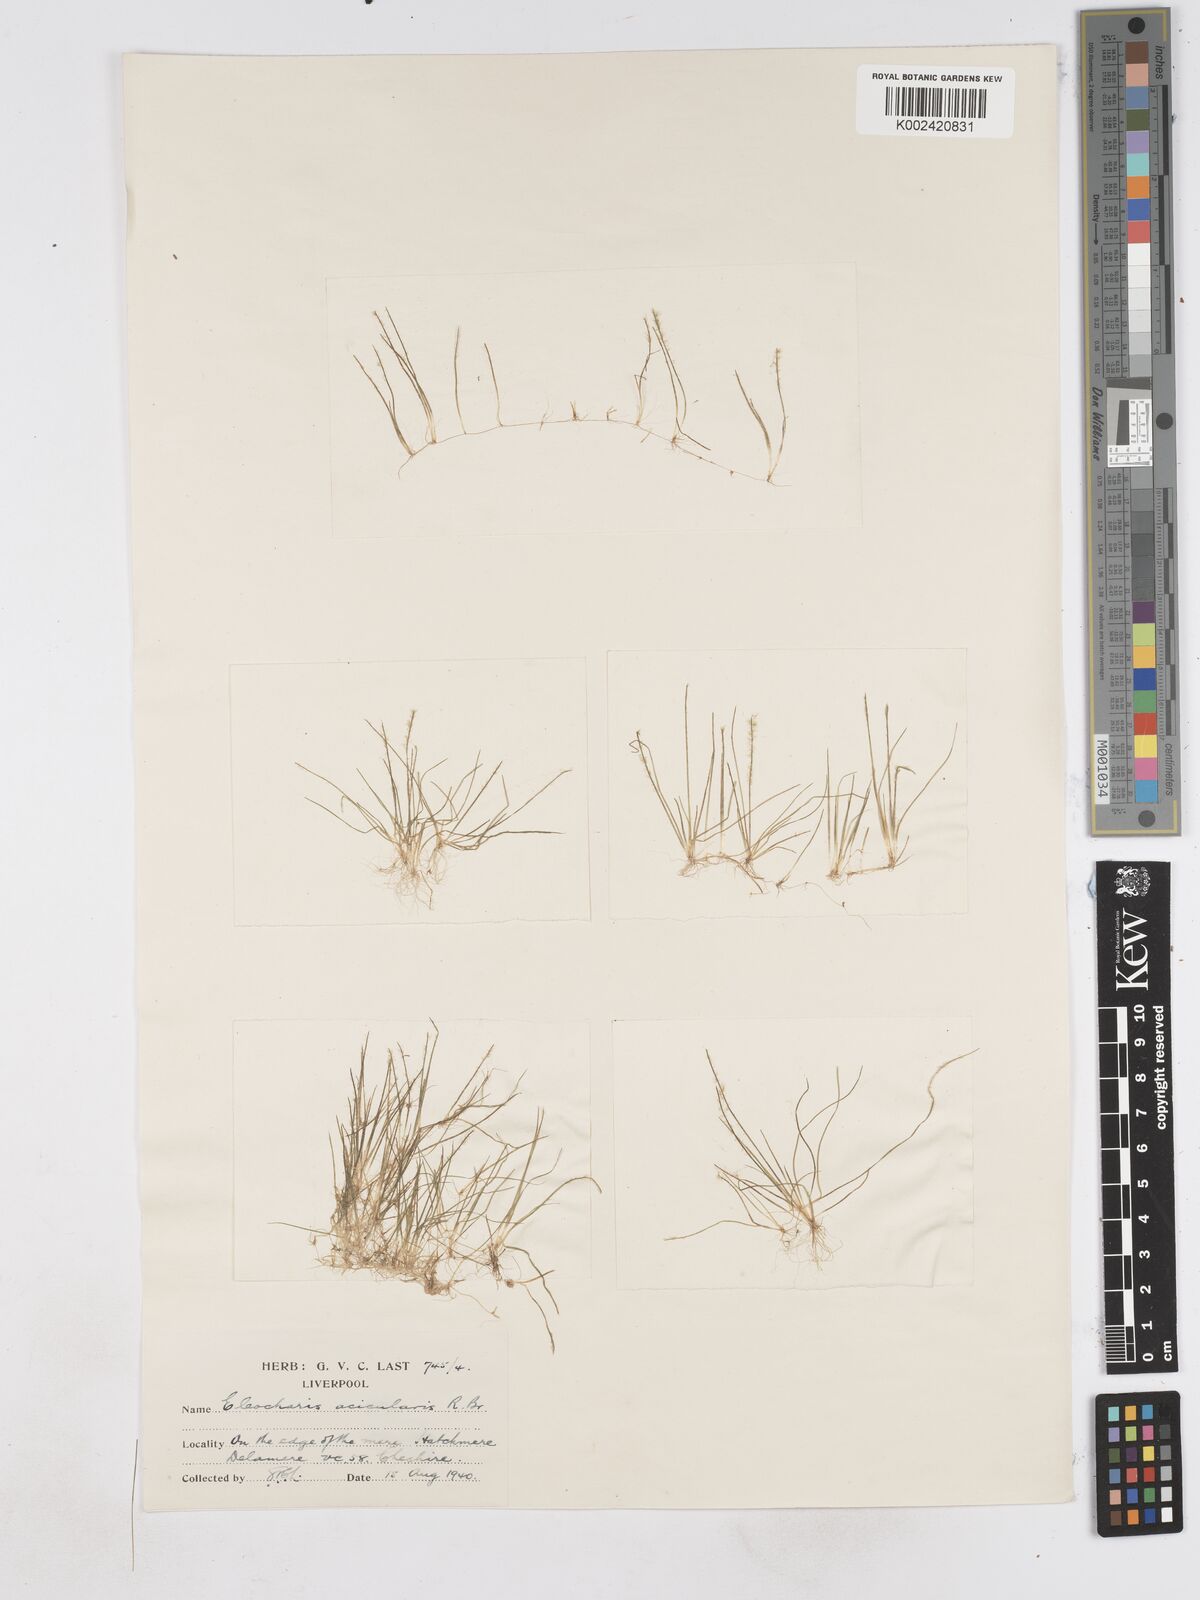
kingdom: Plantae
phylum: Tracheophyta
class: Liliopsida
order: Poales
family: Cyperaceae
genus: Eleocharis
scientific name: Eleocharis acicularis
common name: Needle spike-rush
